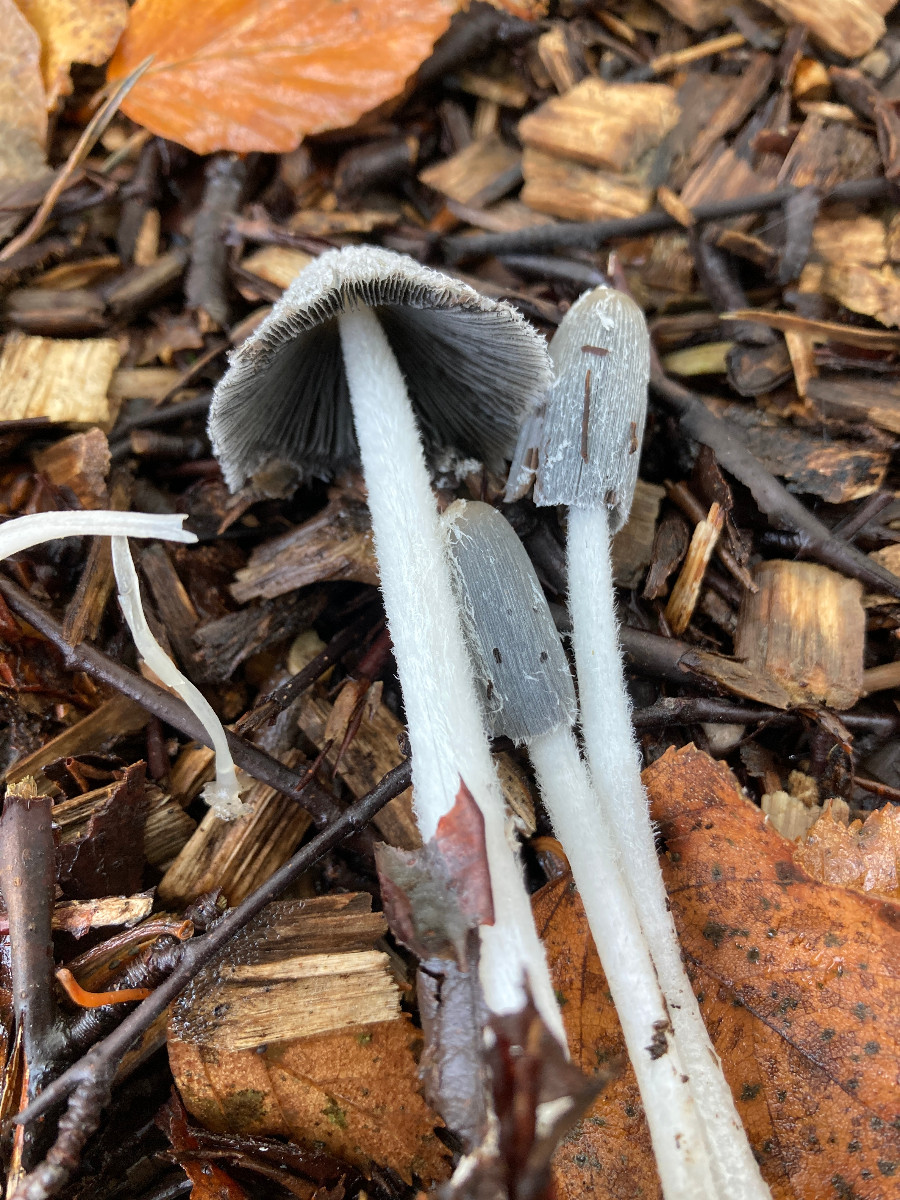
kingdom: Fungi
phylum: Basidiomycota
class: Agaricomycetes
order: Agaricales
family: Psathyrellaceae
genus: Coprinopsis
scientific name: Coprinopsis lagopus
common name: dunstokket blækhat
